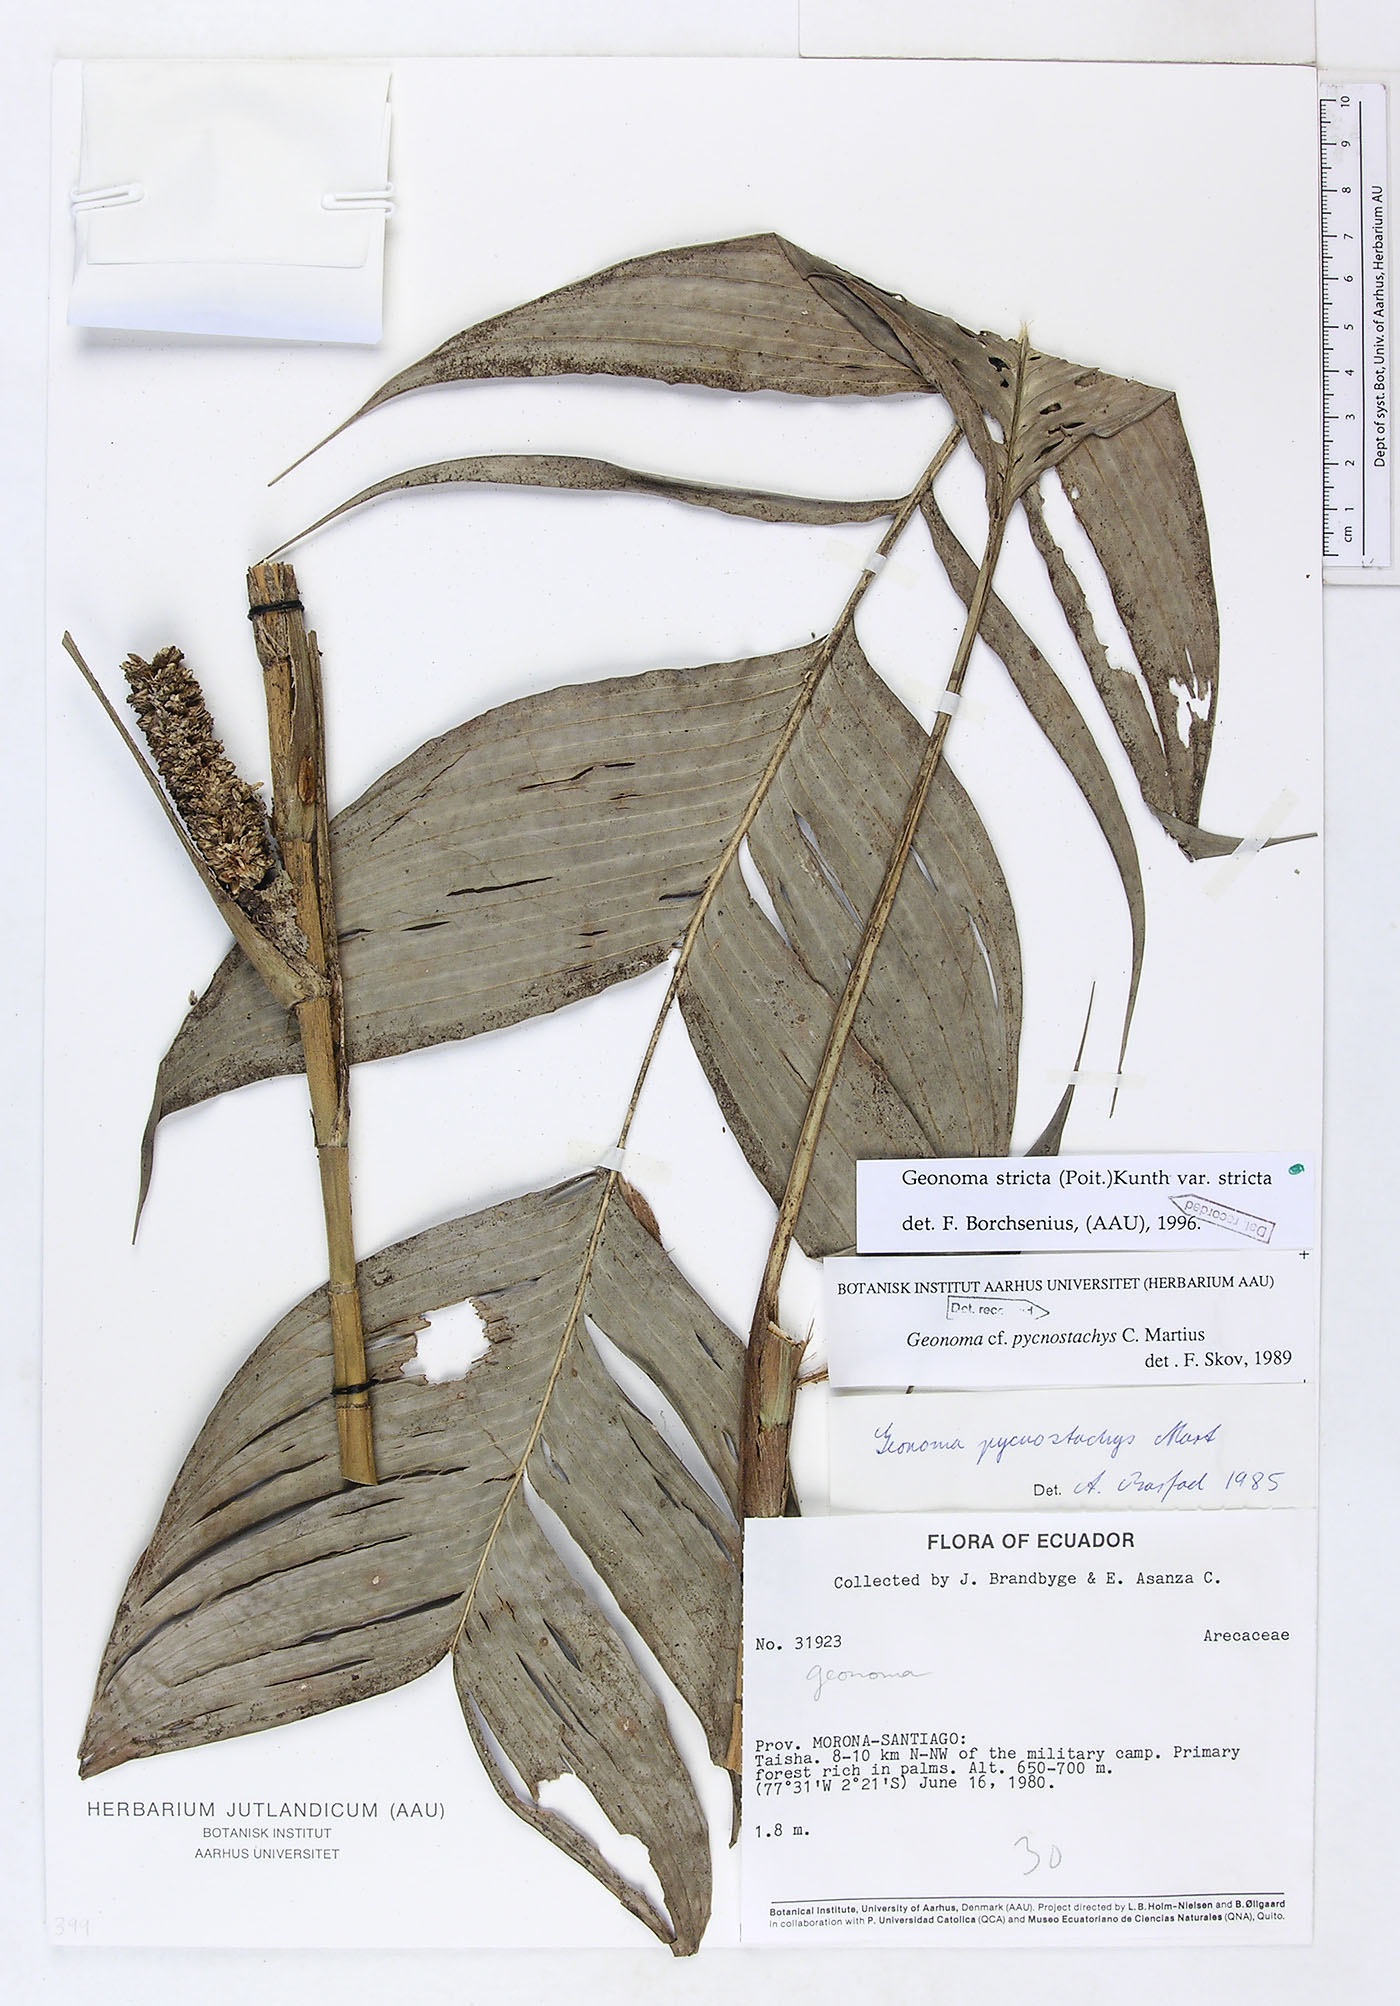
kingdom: Plantae
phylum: Tracheophyta
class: Liliopsida
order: Arecales
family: Arecaceae
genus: Geonoma
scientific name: Geonoma stricta
